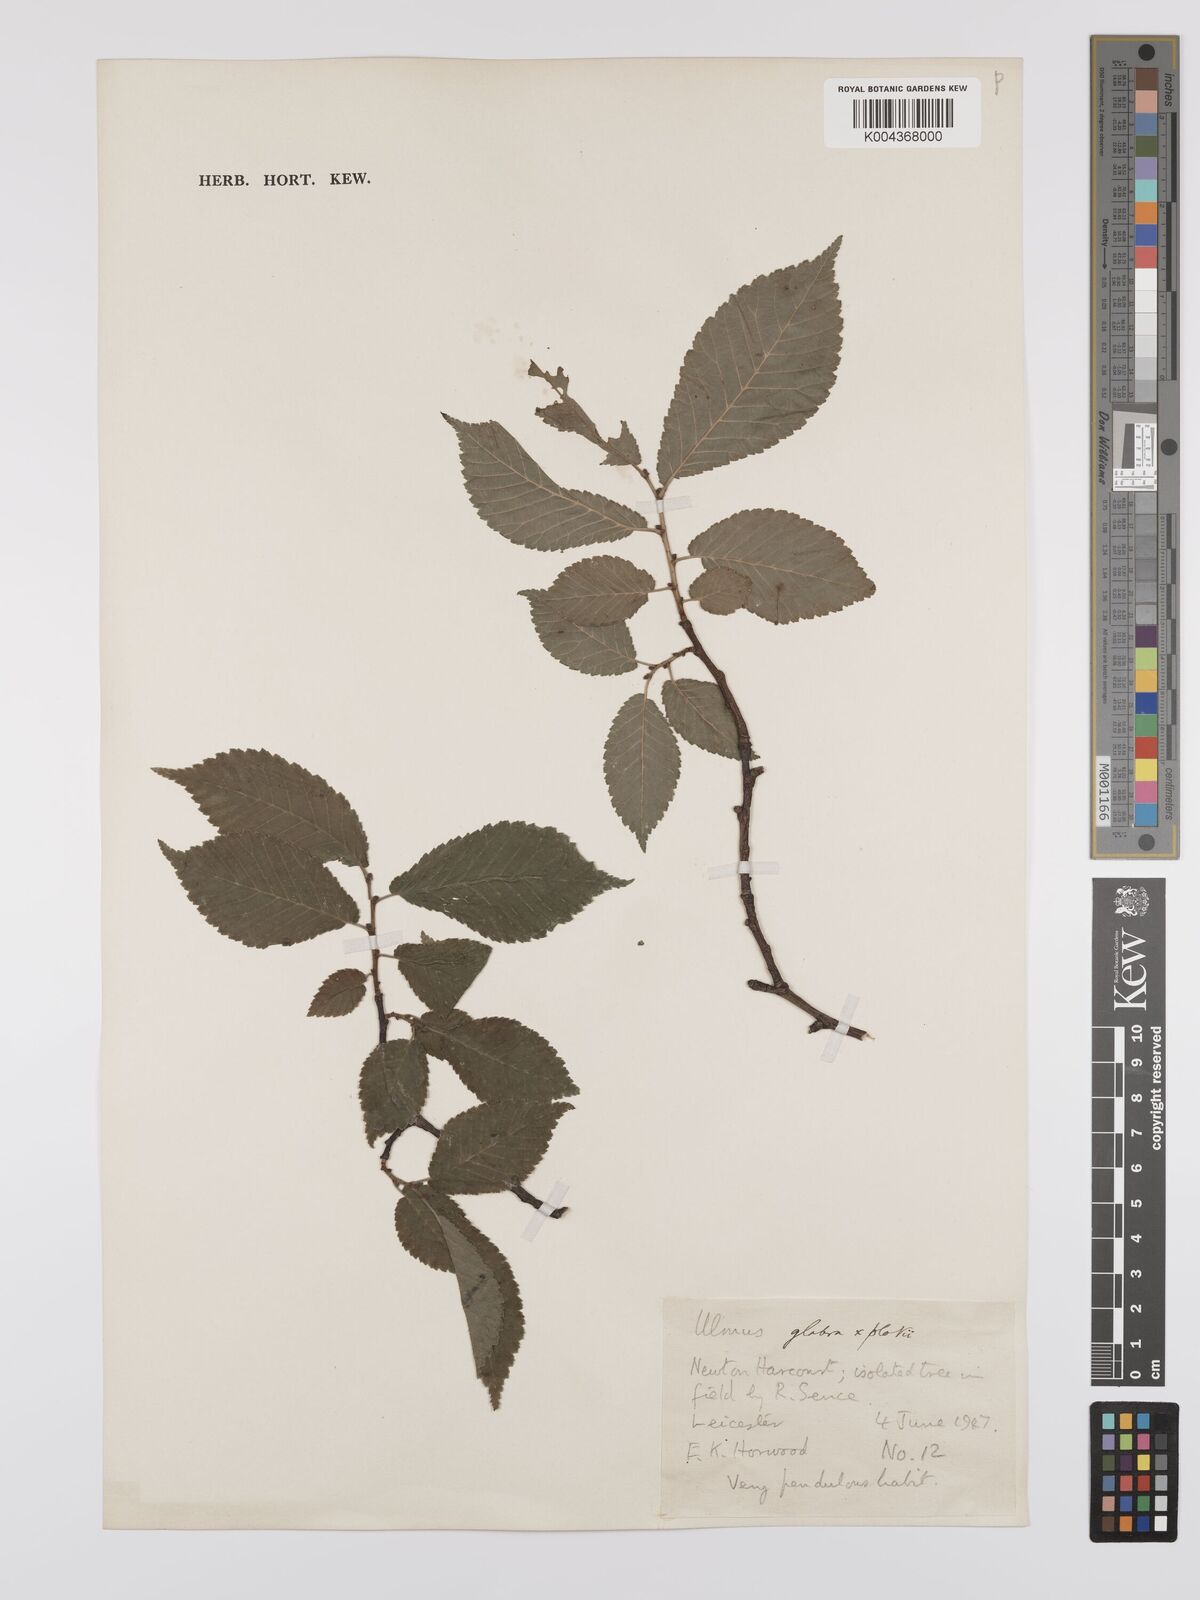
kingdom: Plantae
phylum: Tracheophyta
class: Magnoliopsida
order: Rosales
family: Ulmaceae
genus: Ulmus
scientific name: Ulmus minor
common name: Small-leaved elm
